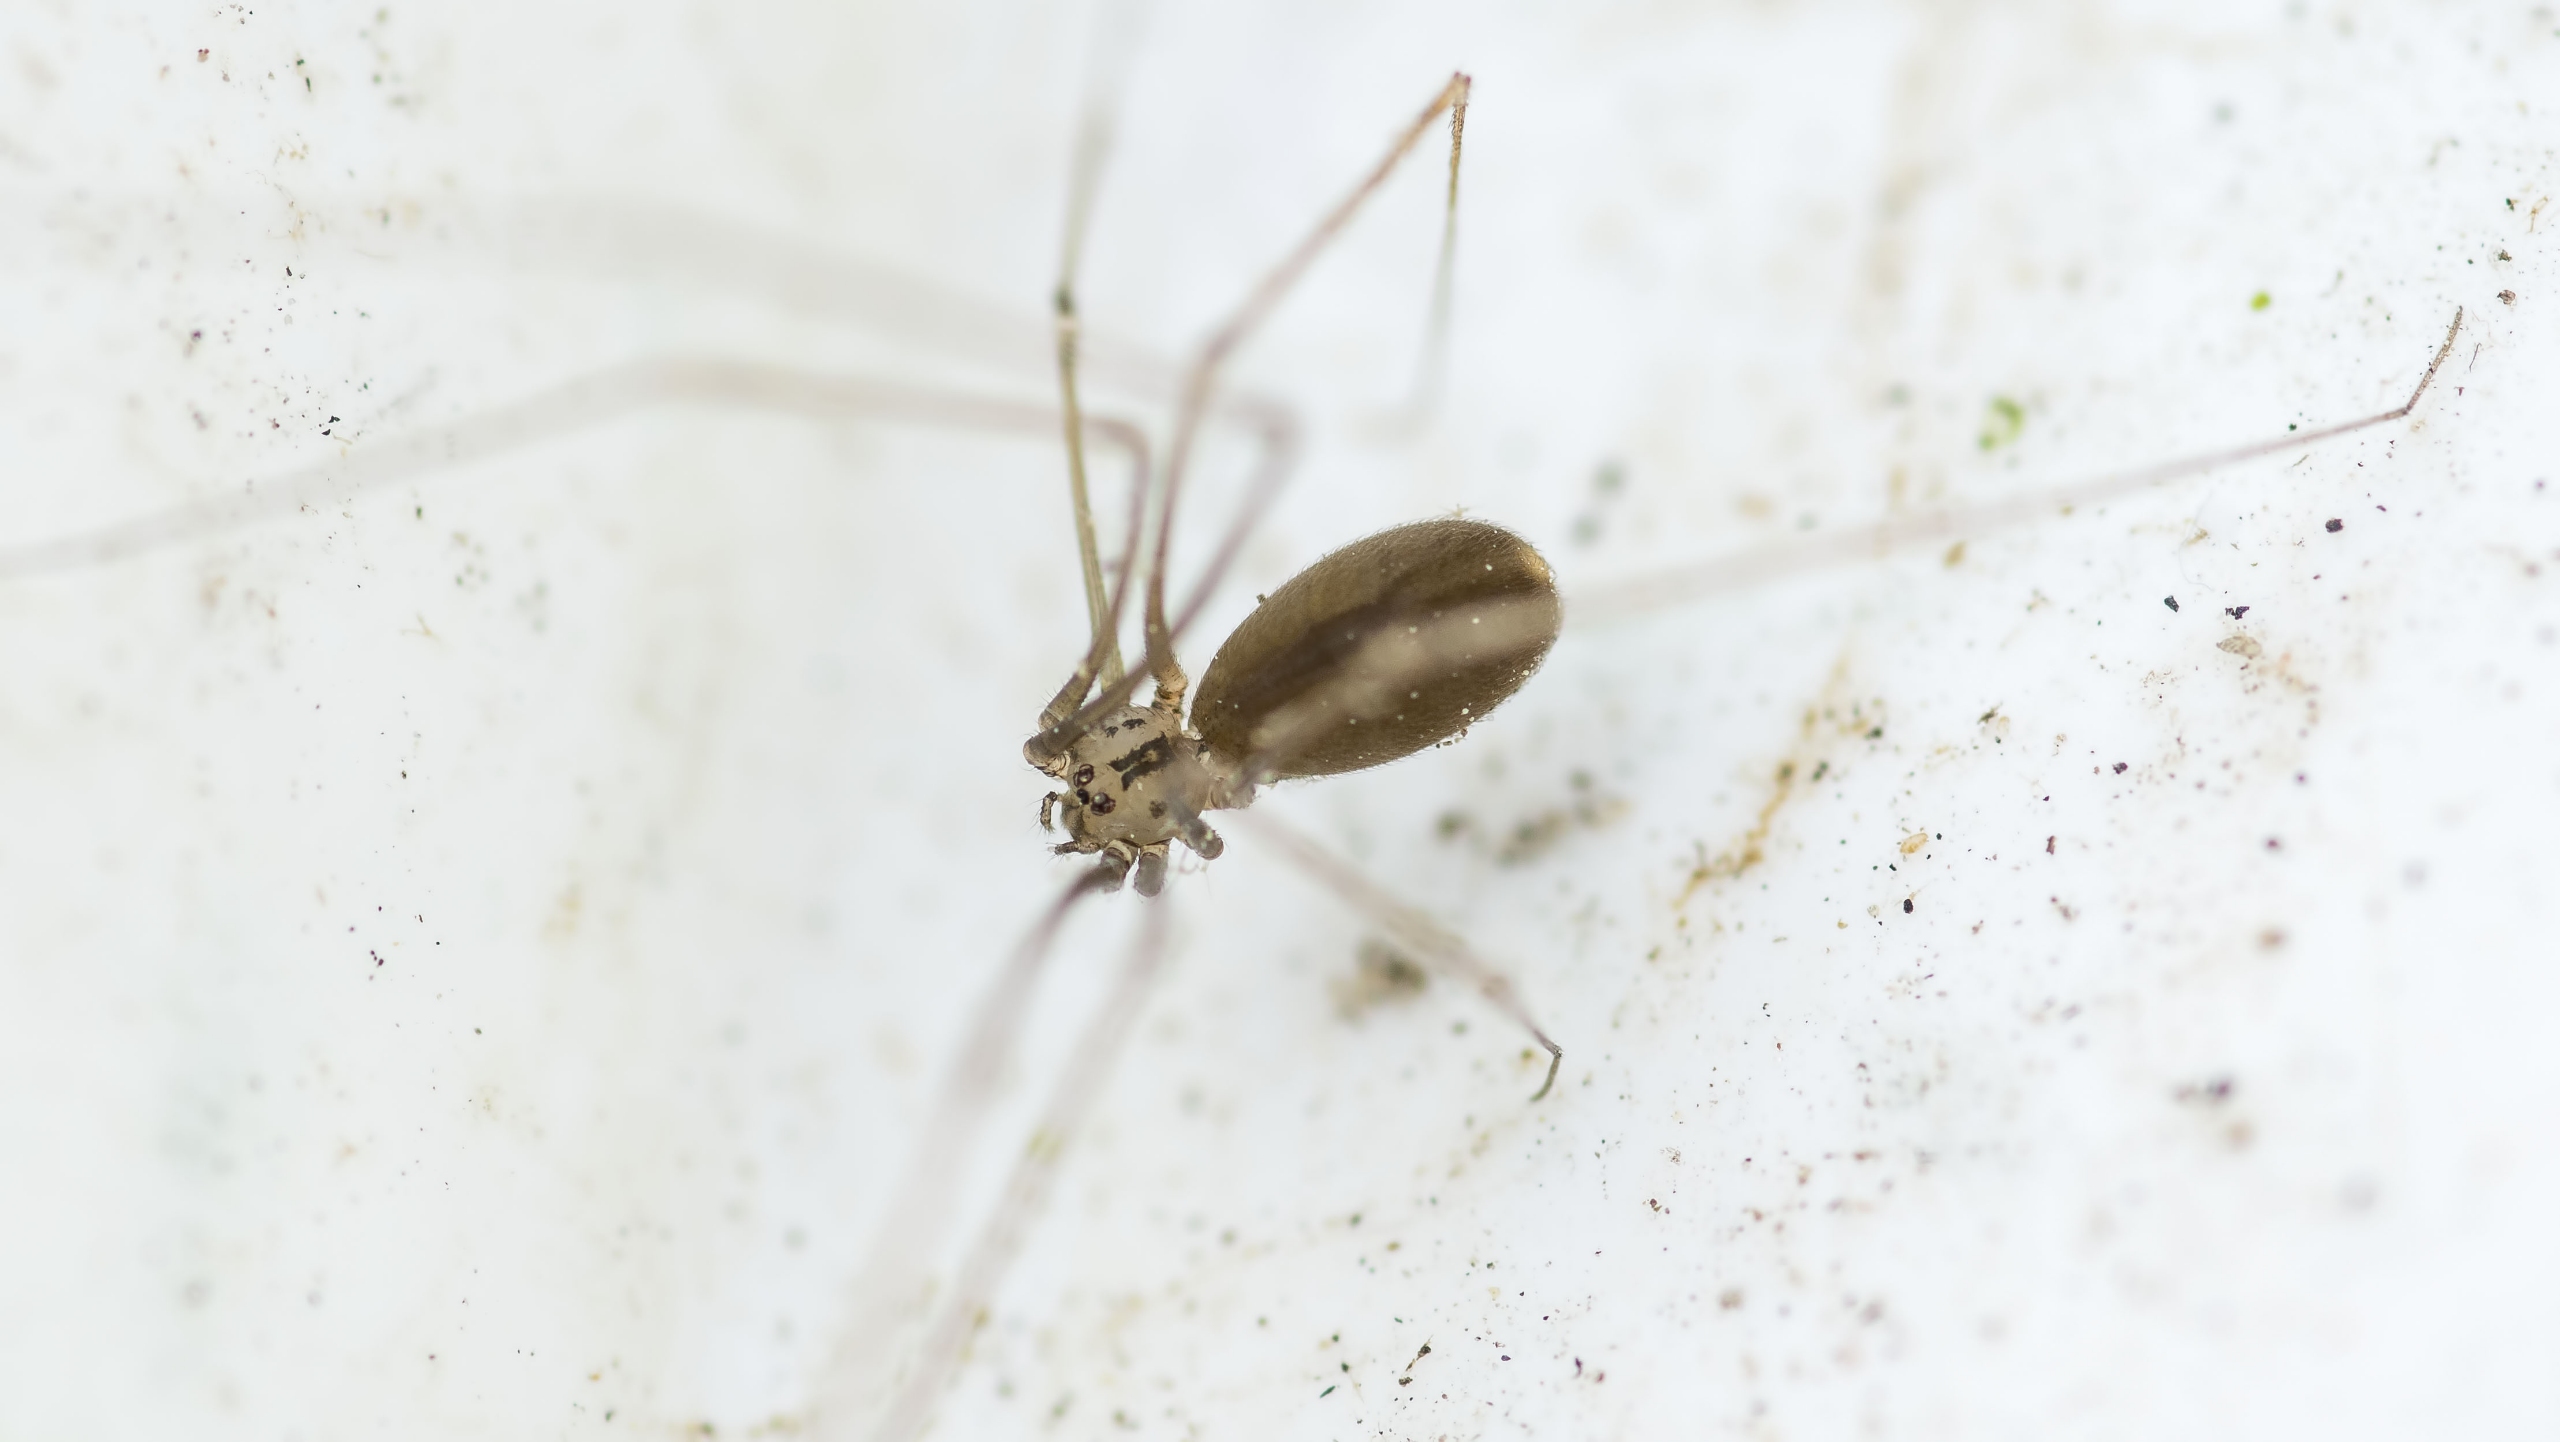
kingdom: Animalia
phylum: Arthropoda
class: Arachnida
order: Araneae
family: Pholcidae
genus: Pholcus
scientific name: Pholcus opilionoides
